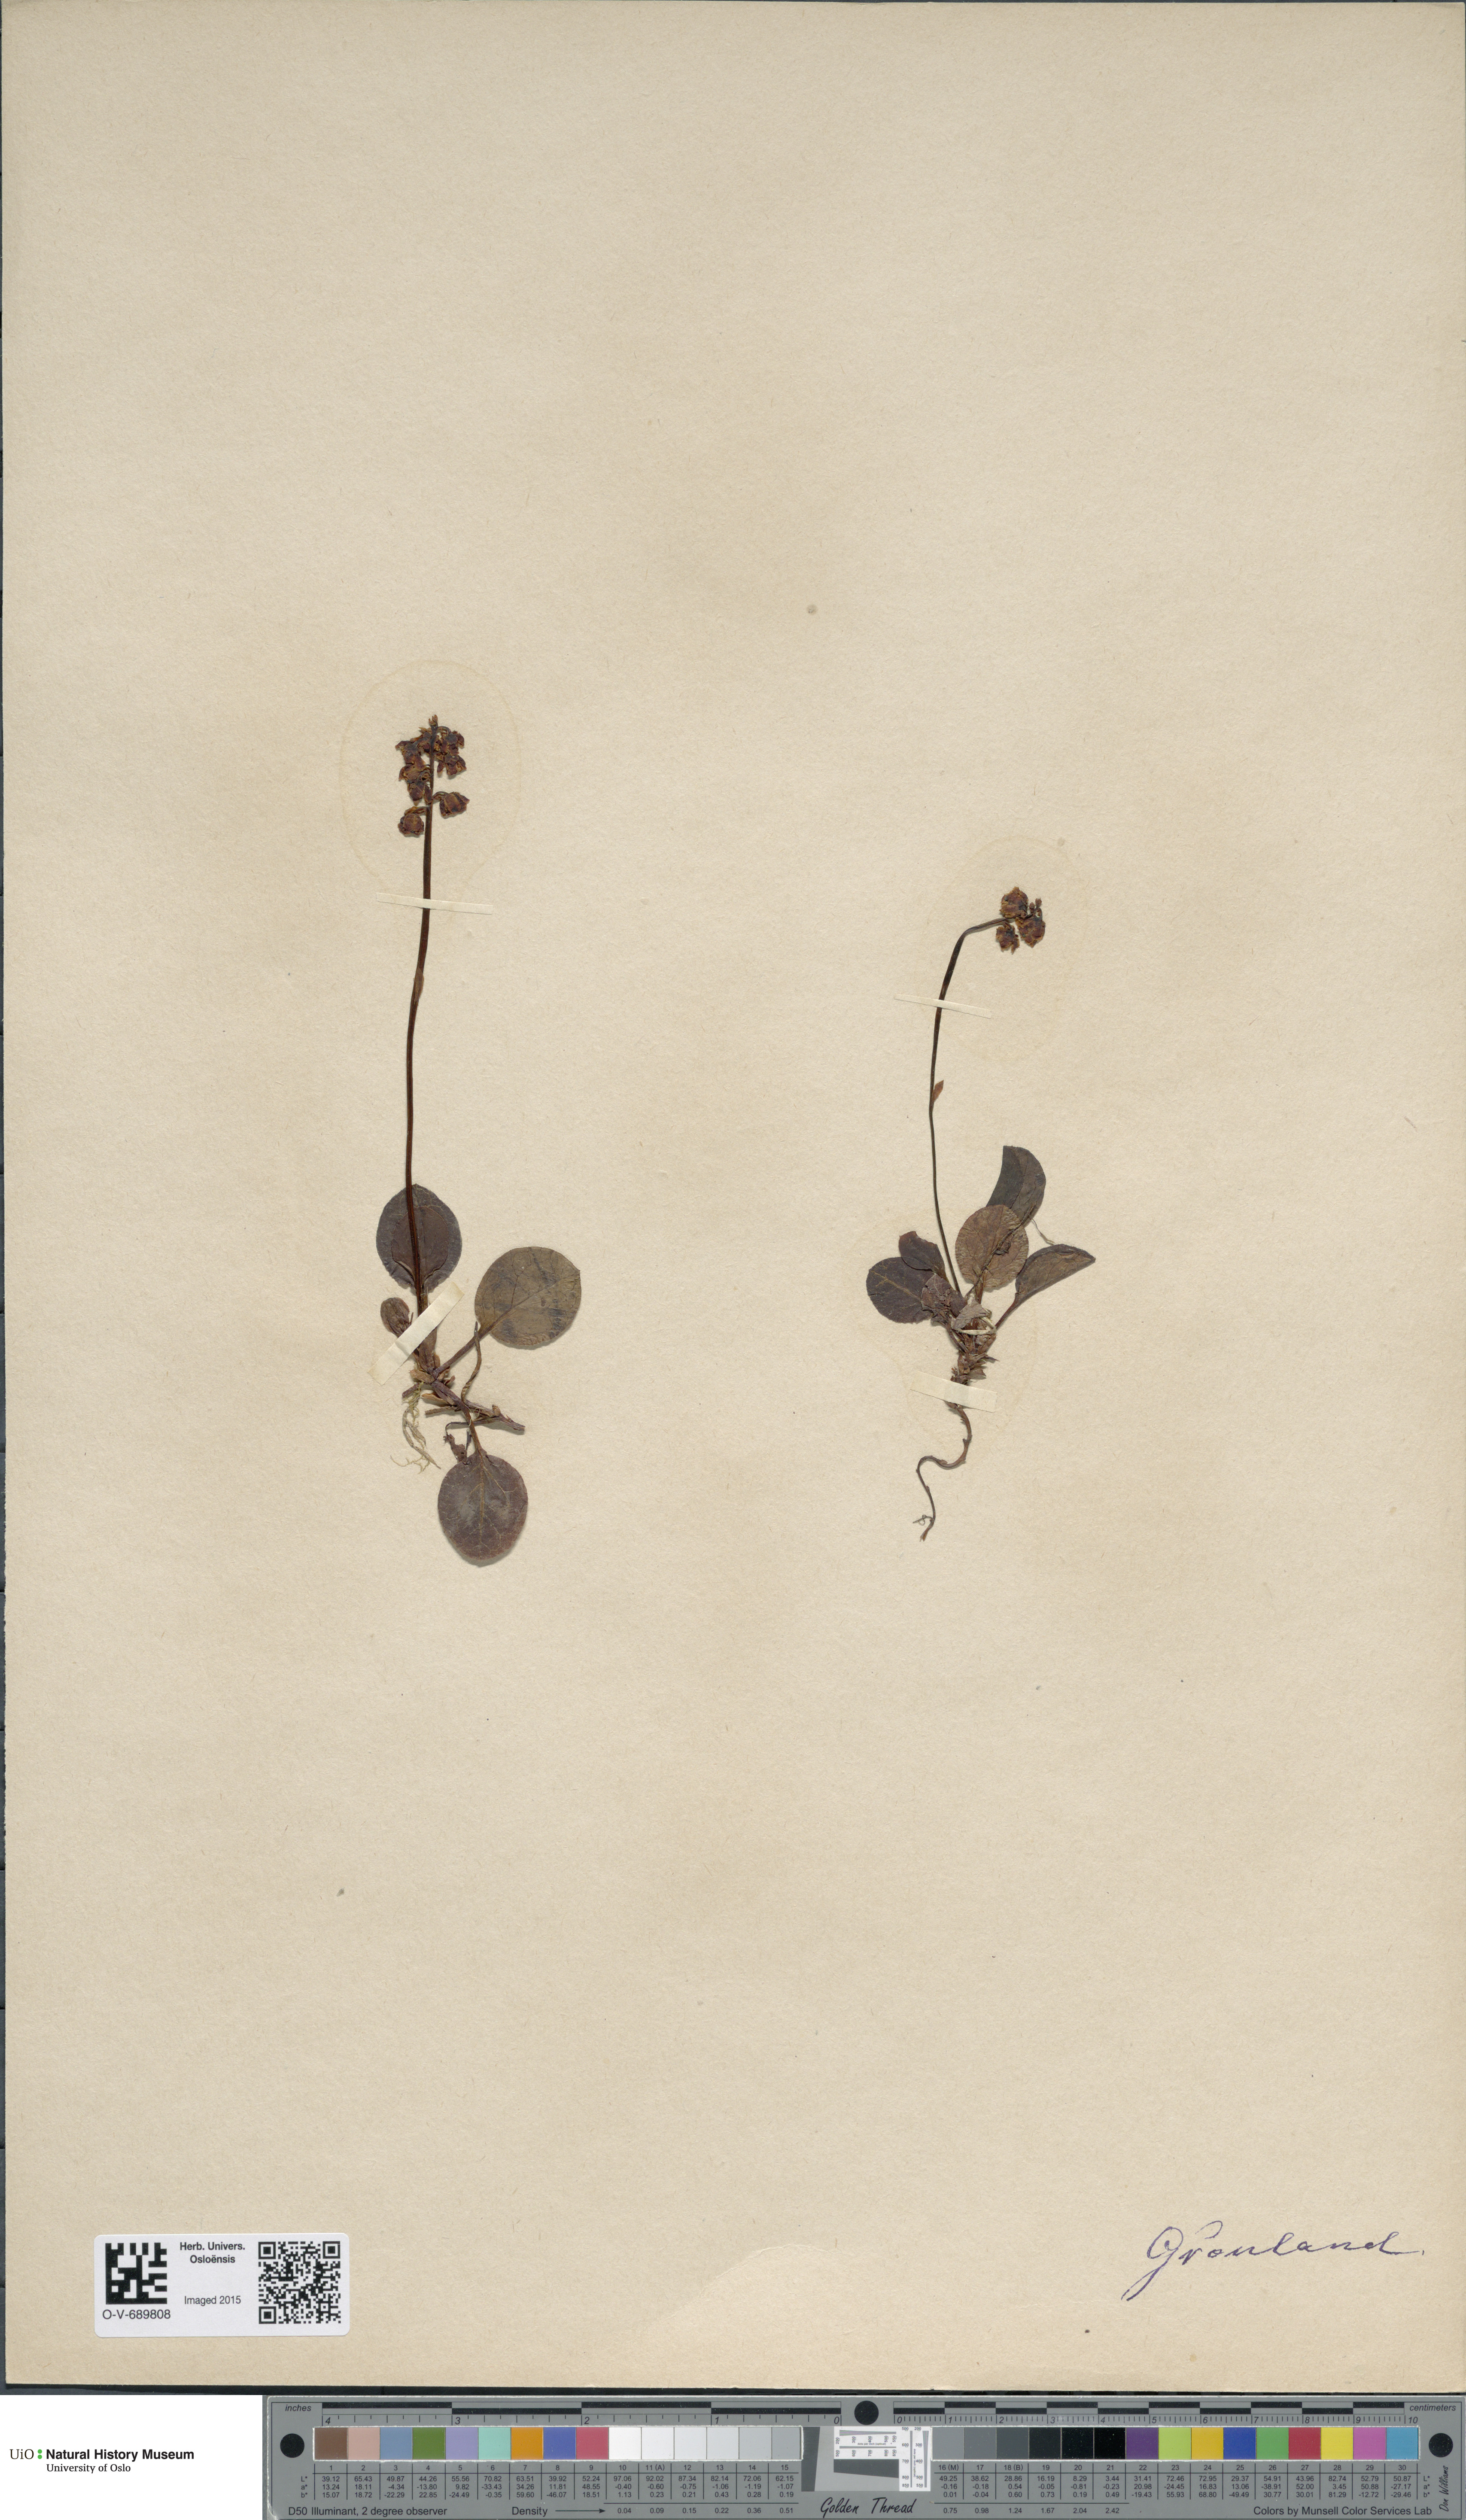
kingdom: Plantae
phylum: Tracheophyta
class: Magnoliopsida
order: Ericales
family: Ericaceae
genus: Pyrola
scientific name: Pyrola minor
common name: Common wintergreen
